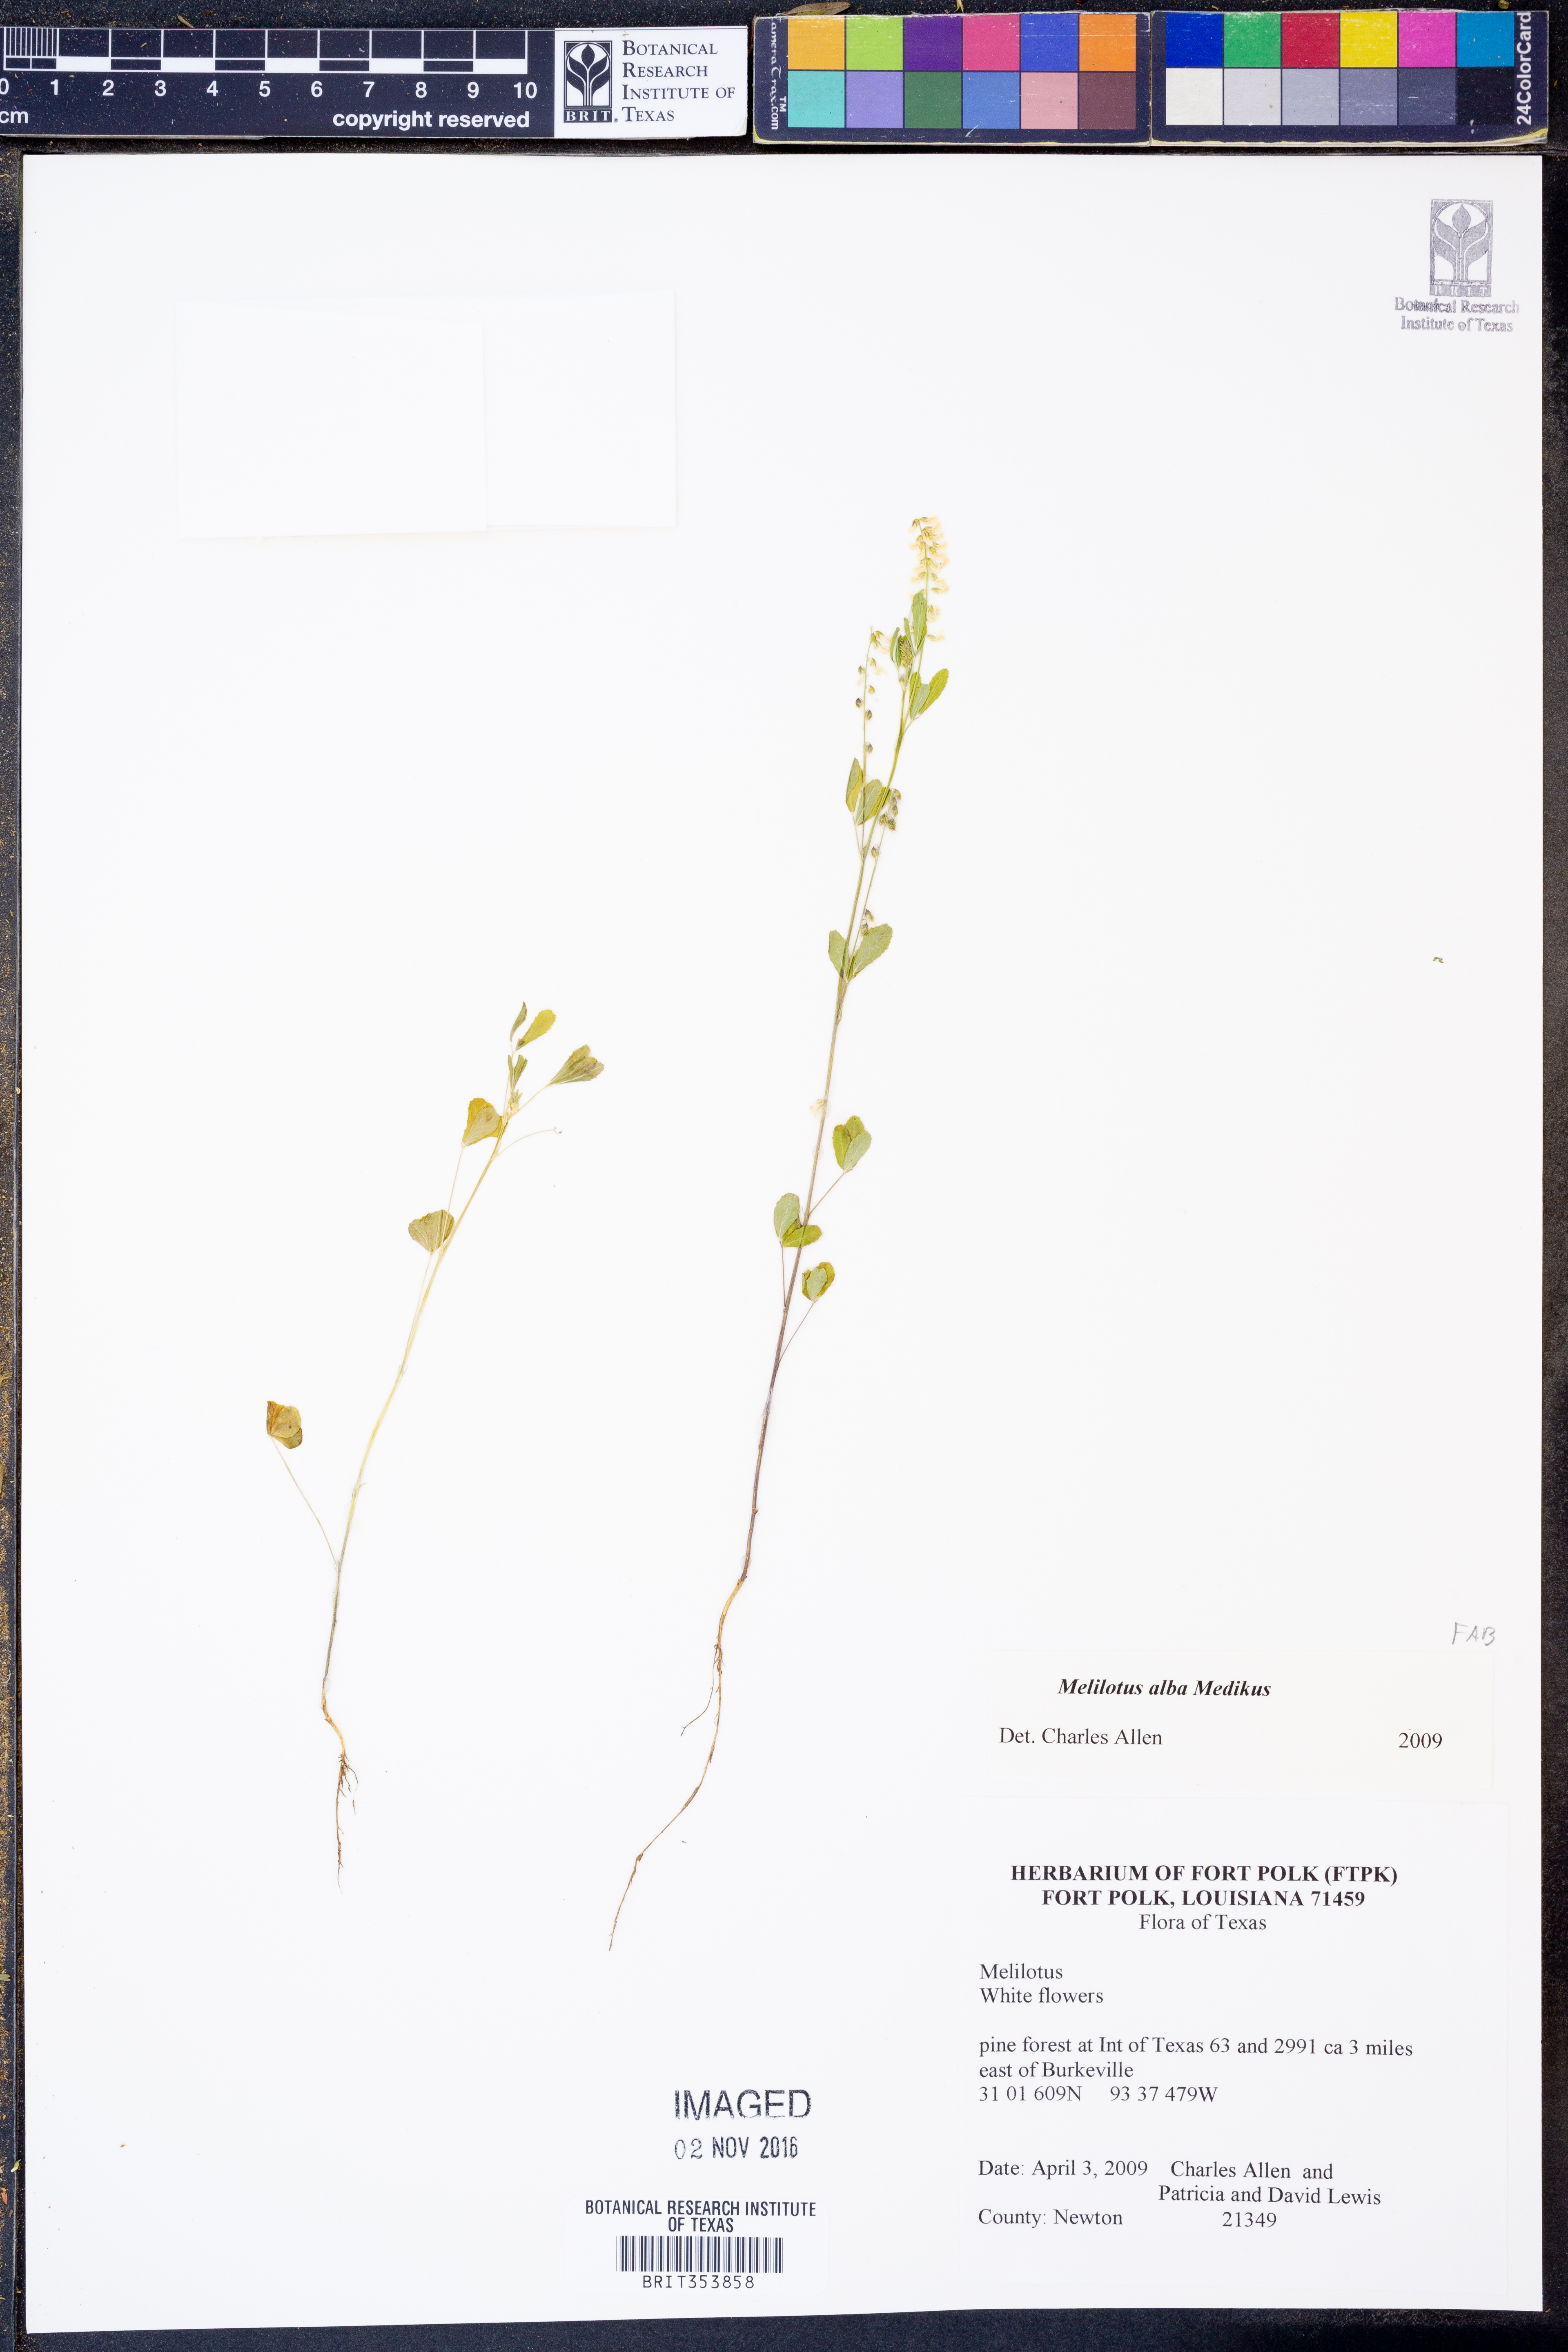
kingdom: Plantae
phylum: Tracheophyta
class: Magnoliopsida
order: Fabales
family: Fabaceae
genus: Melilotus
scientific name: Melilotus albus
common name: White melilot
